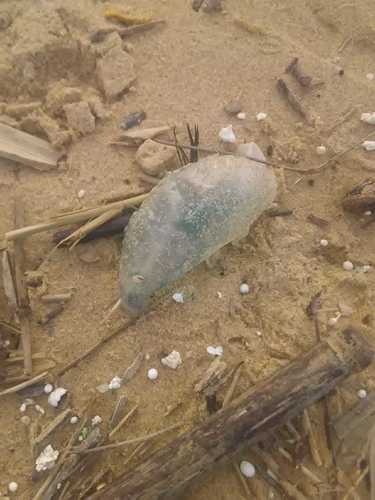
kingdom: Animalia
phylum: Cnidaria
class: Hydrozoa
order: Siphonophorae
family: Physaliidae
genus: Physalia
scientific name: Physalia physalis
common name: Portuguese man-of-war
